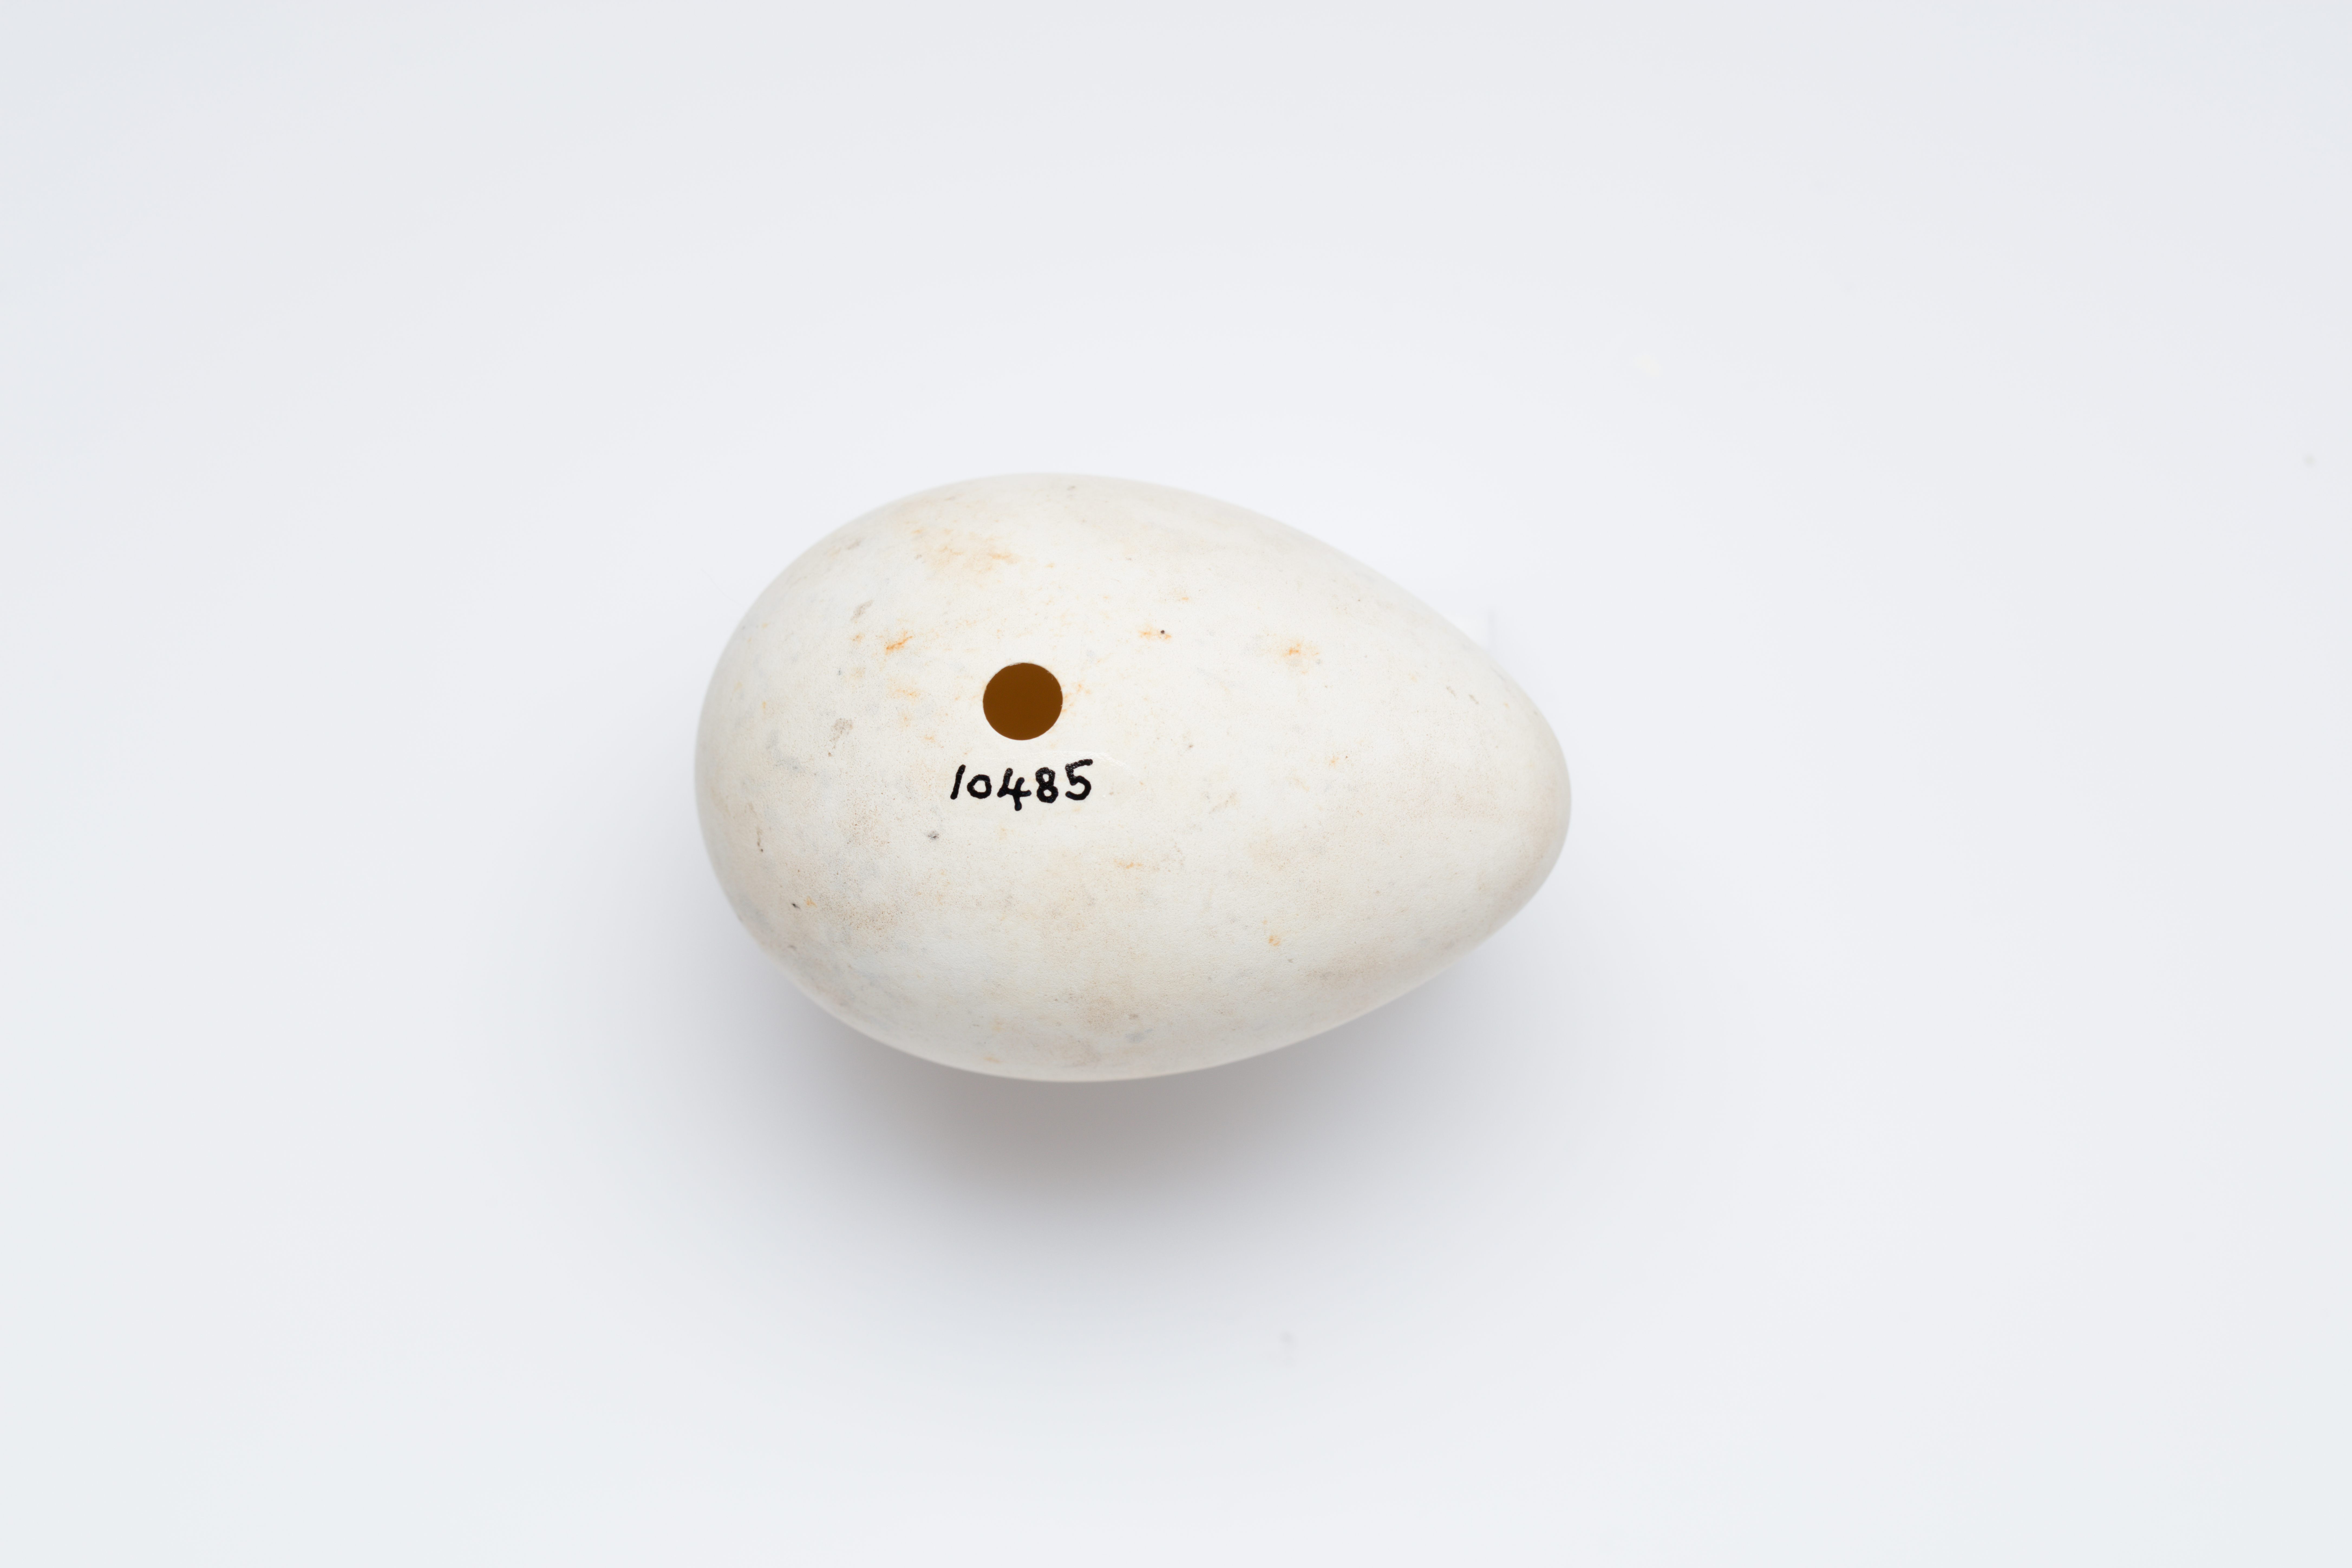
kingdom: Animalia
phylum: Chordata
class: Aves
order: Charadriiformes
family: Alcidae
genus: Fratercula
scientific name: Fratercula arctica
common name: Atlantic puffin
